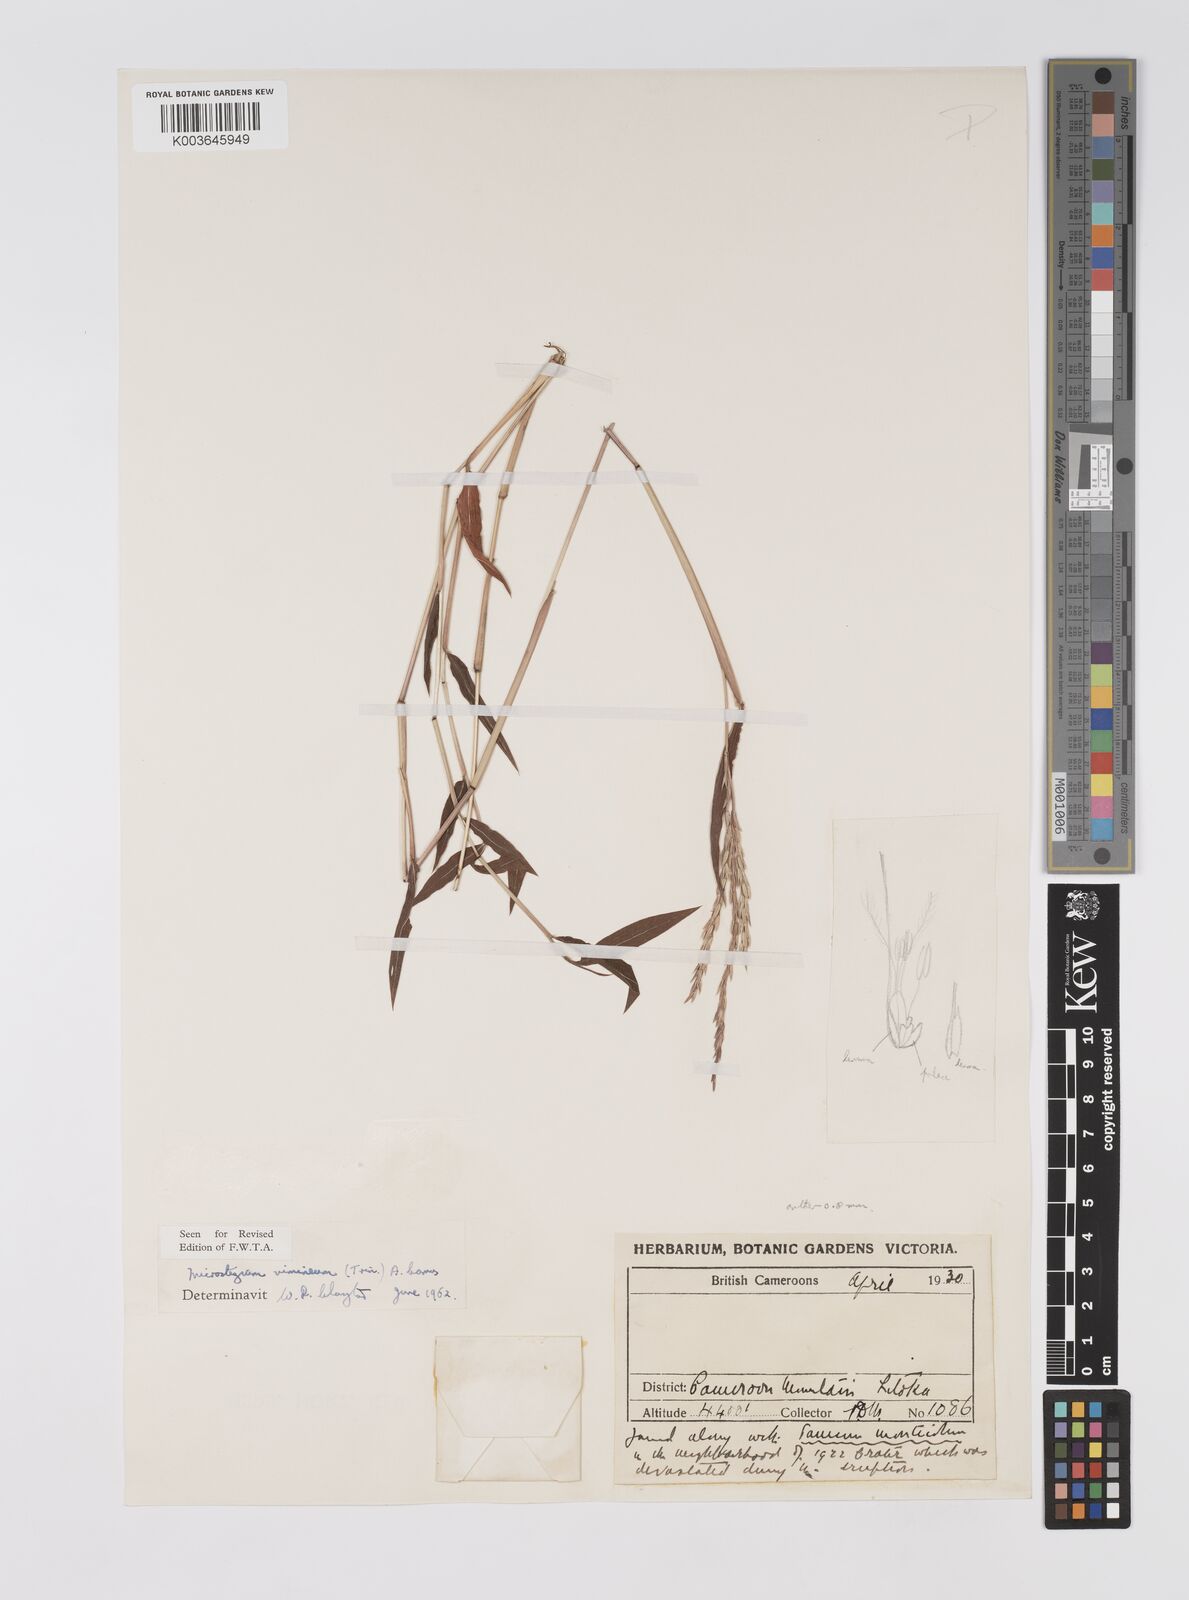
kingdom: Plantae
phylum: Tracheophyta
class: Liliopsida
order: Poales
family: Poaceae
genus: Microstegium
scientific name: Microstegium vimineum
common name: Japanese stiltgrass
